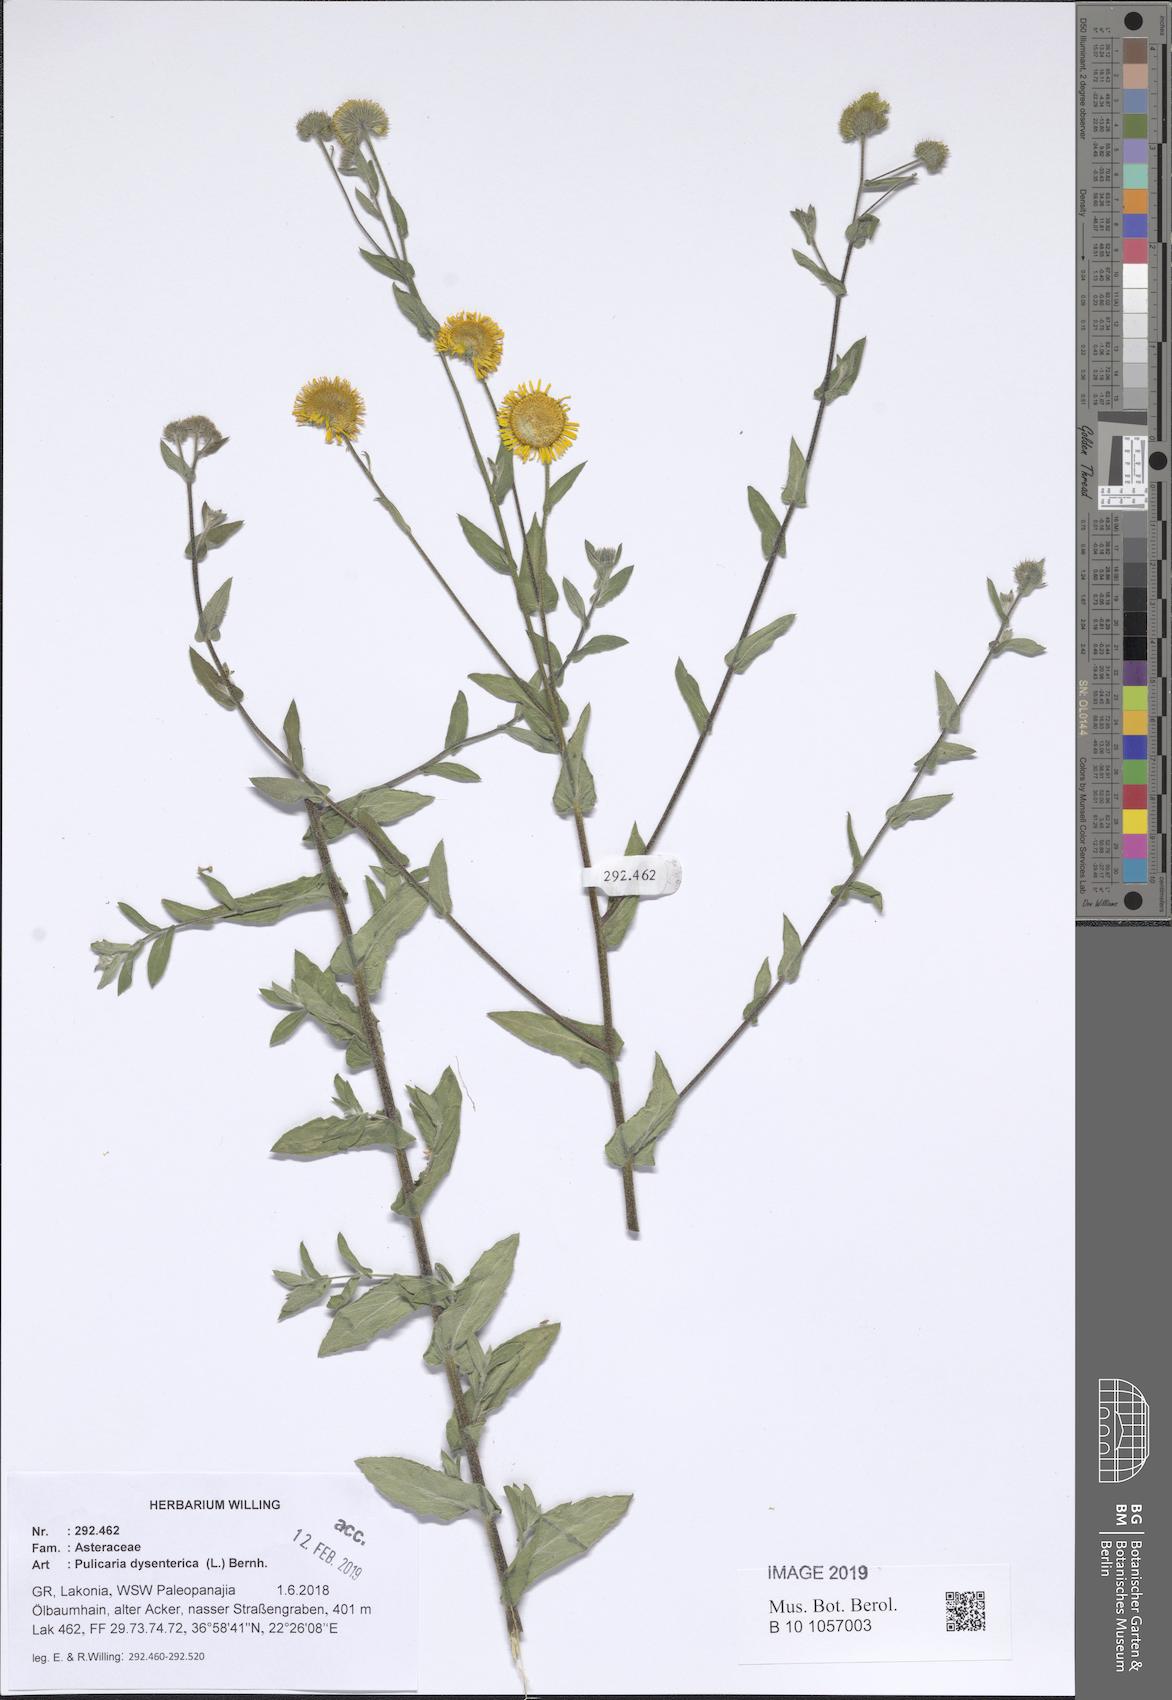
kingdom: Plantae
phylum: Tracheophyta
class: Magnoliopsida
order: Asterales
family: Asteraceae
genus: Pulicaria
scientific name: Pulicaria dysenterica
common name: Common fleabane
